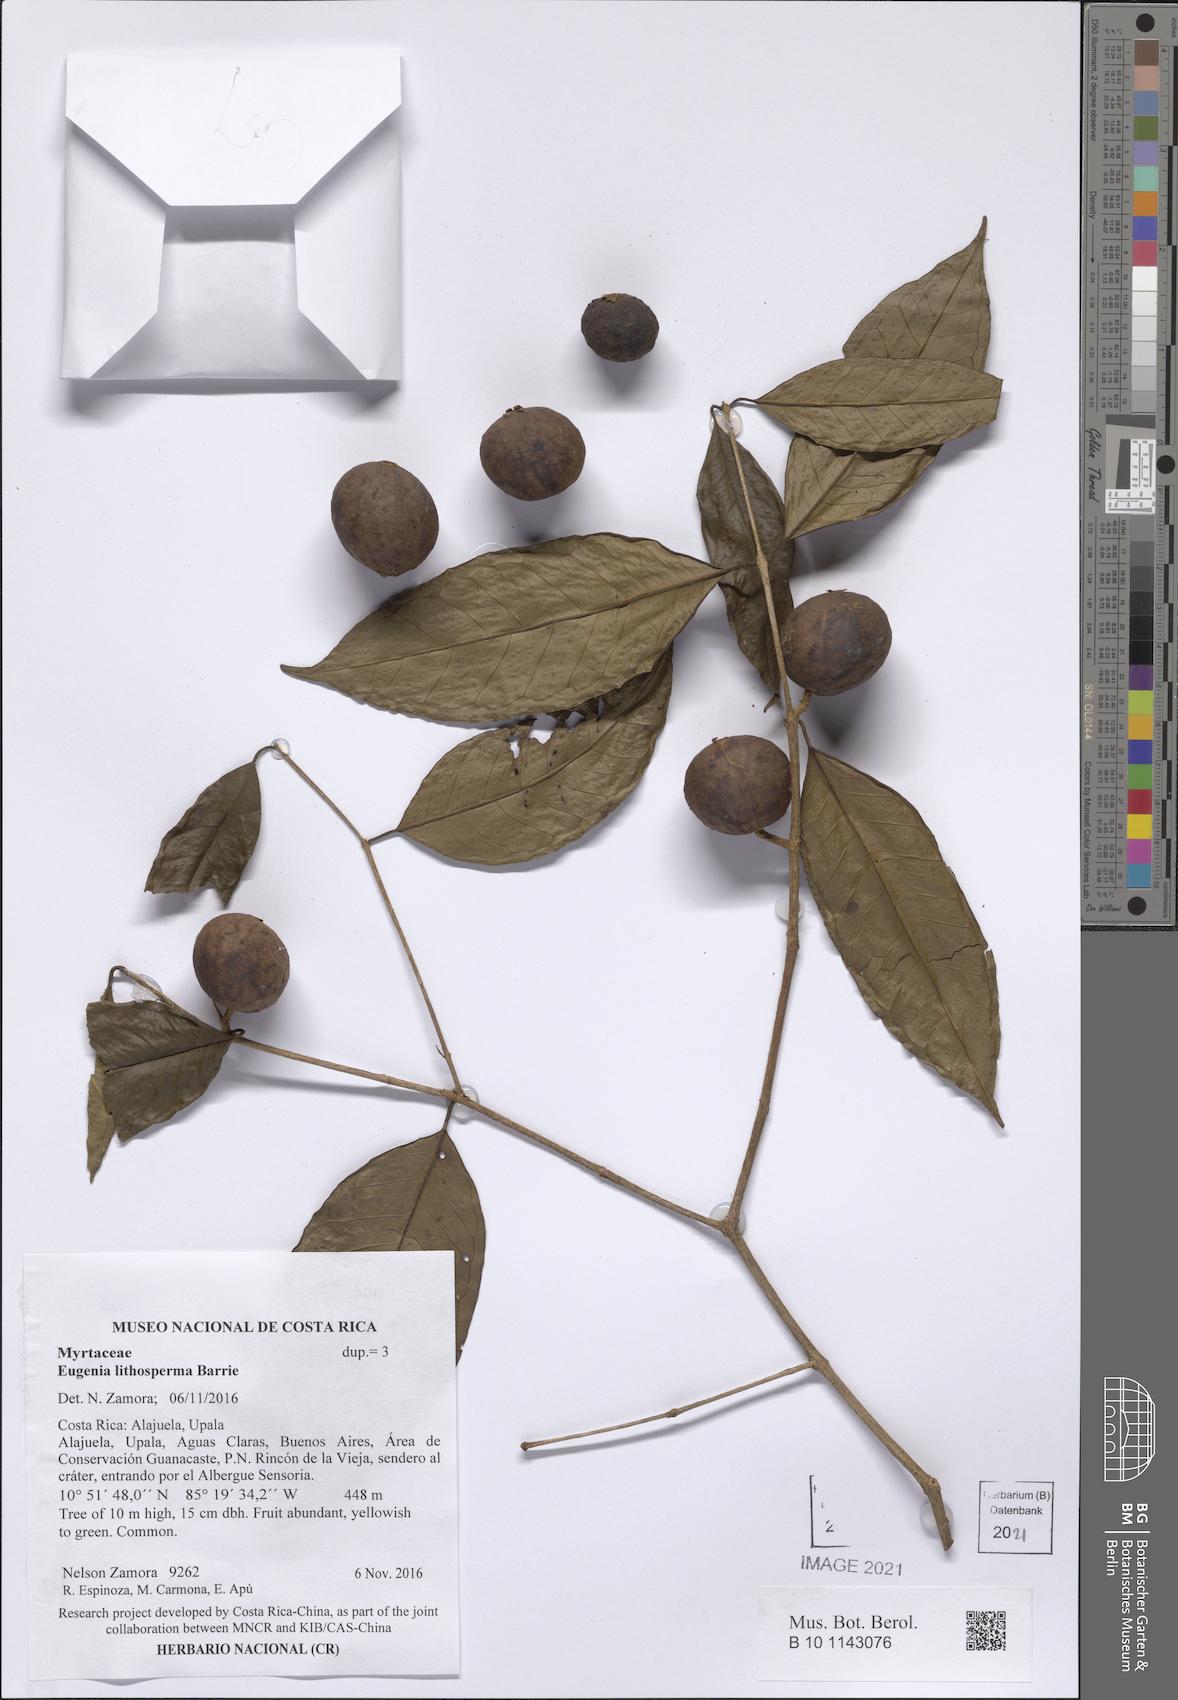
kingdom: Plantae
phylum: Tracheophyta
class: Magnoliopsida
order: Myrtales
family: Myrtaceae
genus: Eugenia
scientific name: Eugenia lithosperma
